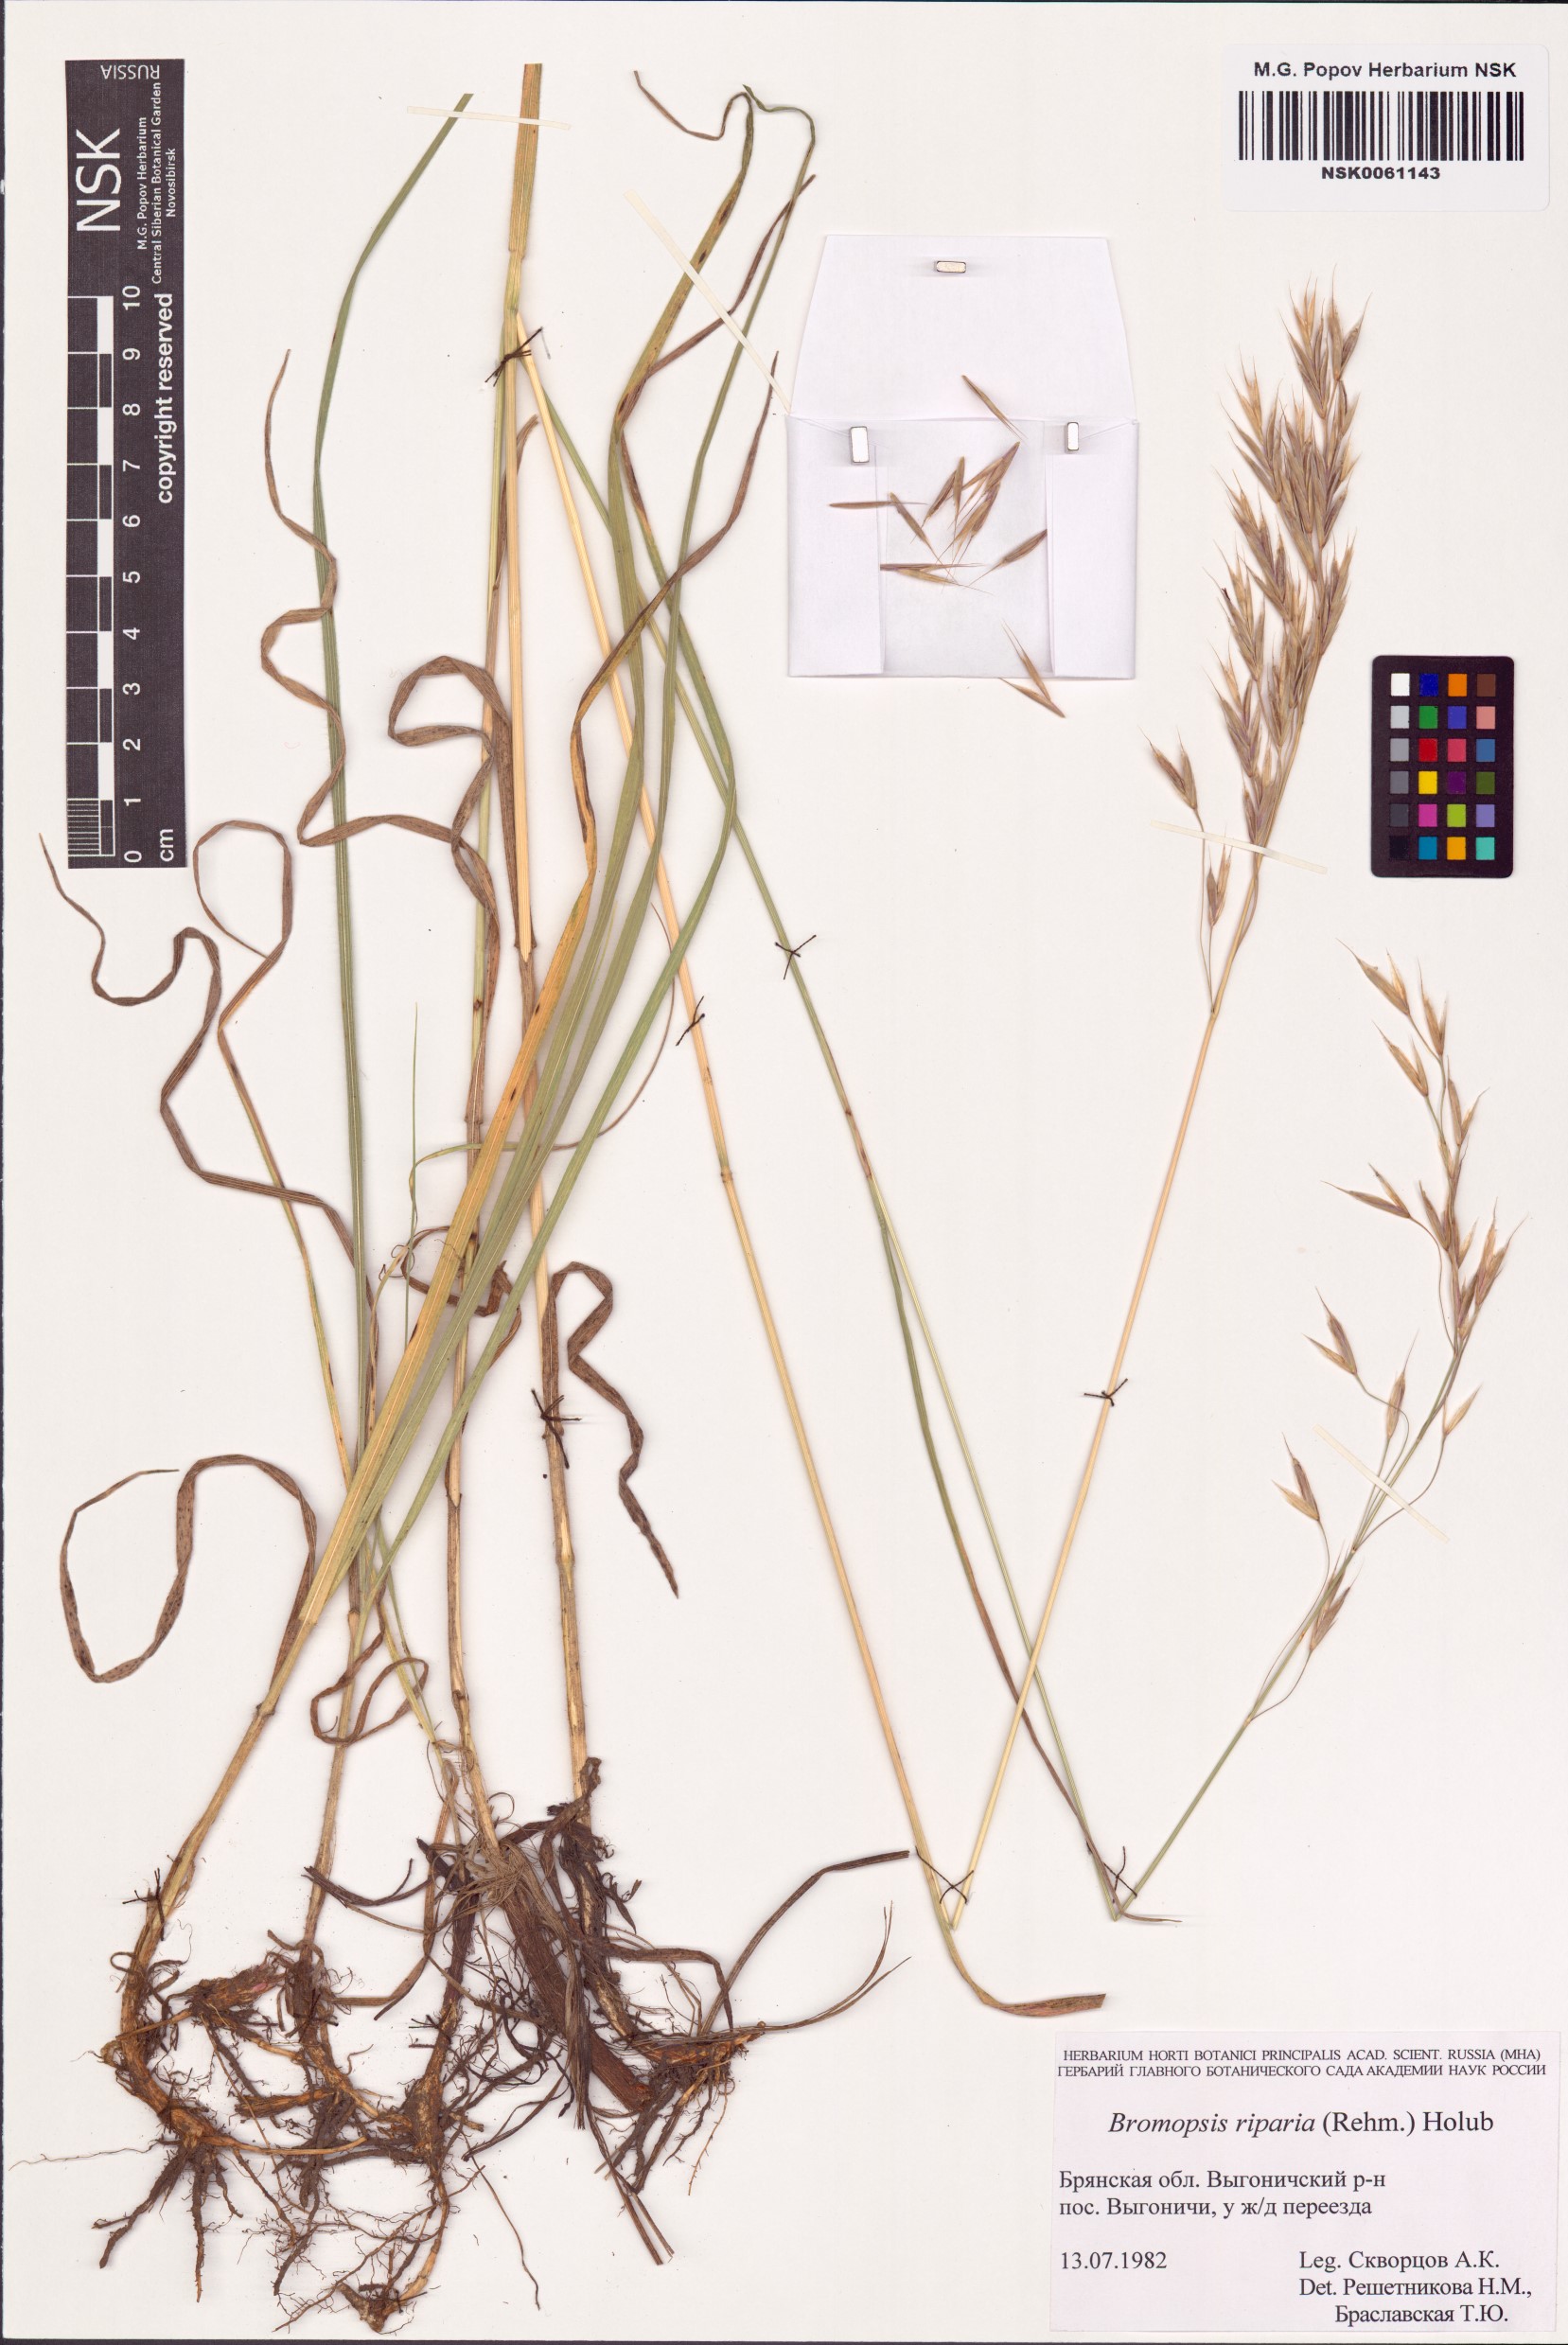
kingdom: Plantae
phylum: Tracheophyta
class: Liliopsida
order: Poales
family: Poaceae
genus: Bromus
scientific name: Bromus riparius
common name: Meadow brome
